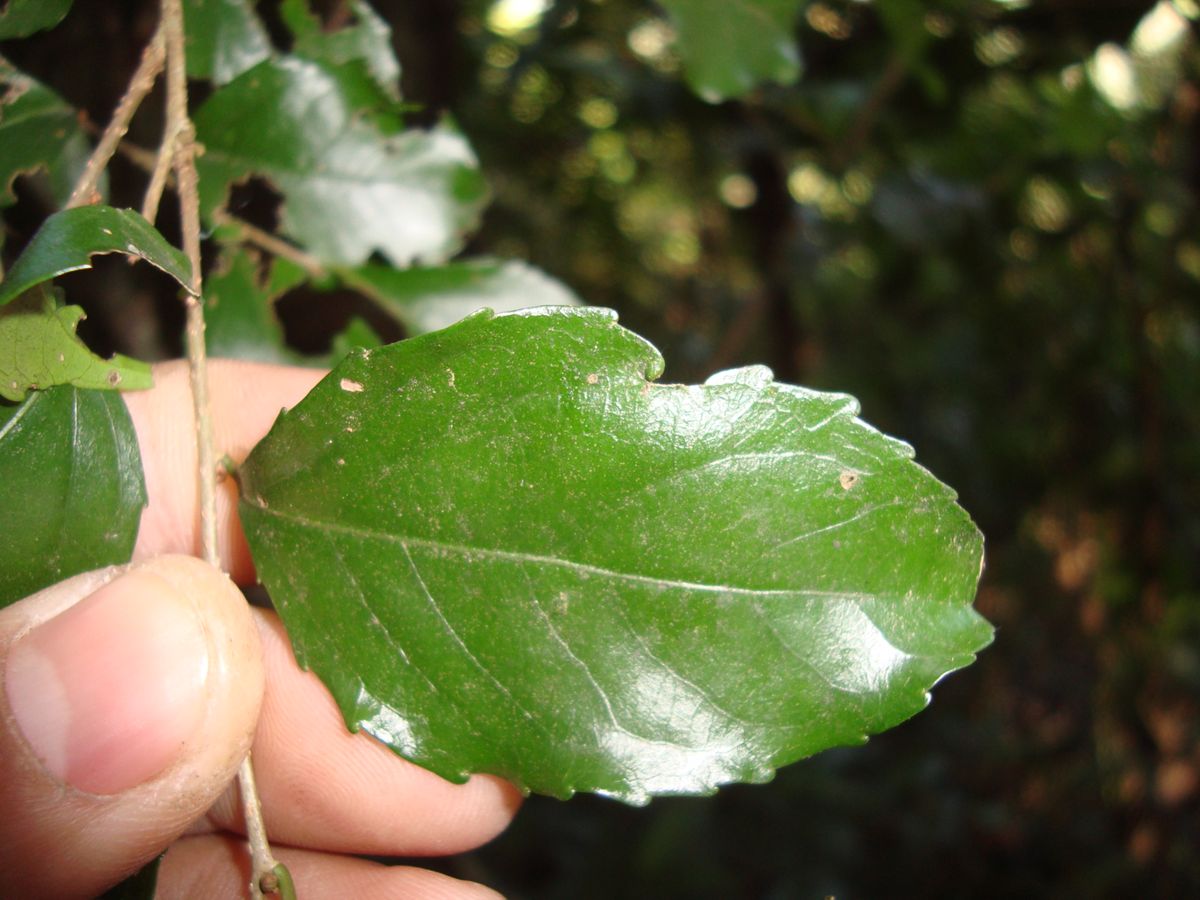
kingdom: Plantae
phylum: Tracheophyta
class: Magnoliopsida
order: Malpighiales
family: Salicaceae
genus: Xylosma
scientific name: Xylosma flexuosa
